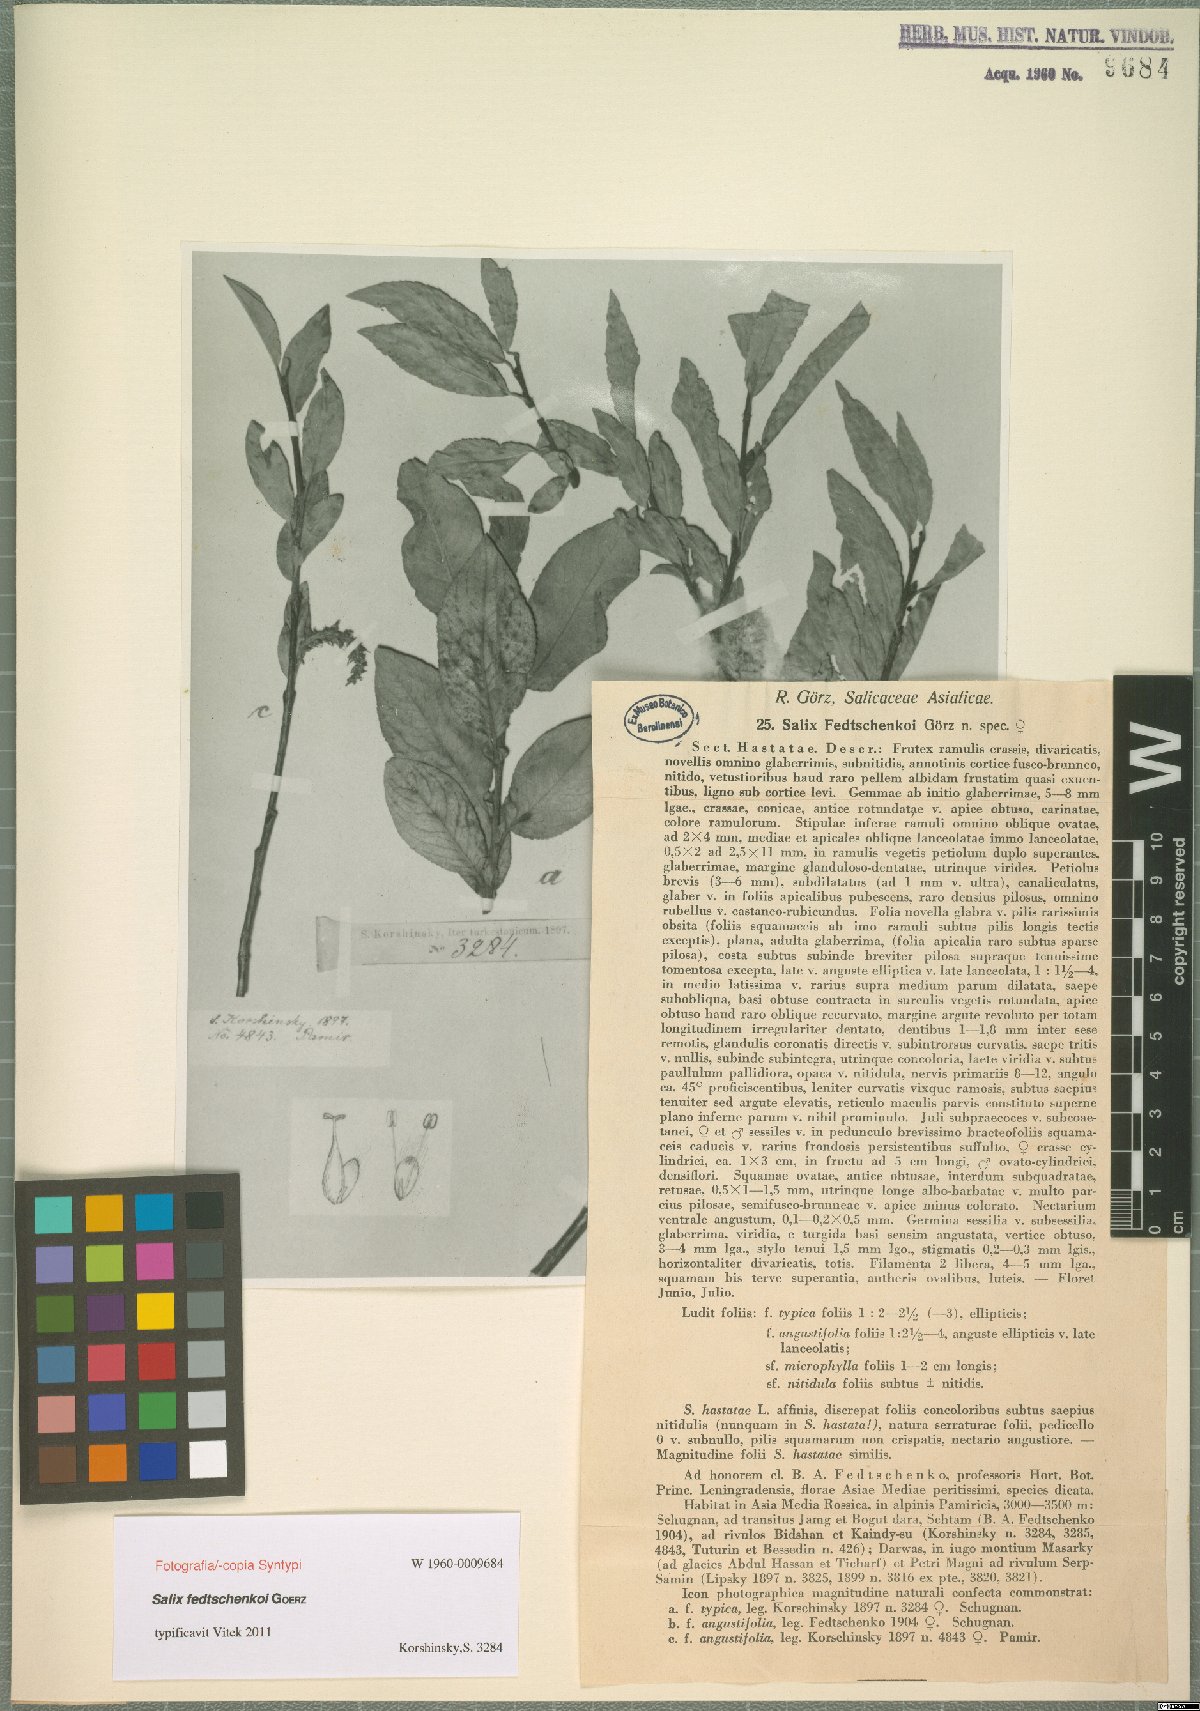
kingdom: Plantae
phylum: Tracheophyta
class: Magnoliopsida
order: Malpighiales
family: Salicaceae
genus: Salix
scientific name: Salix fedtschenkoi
